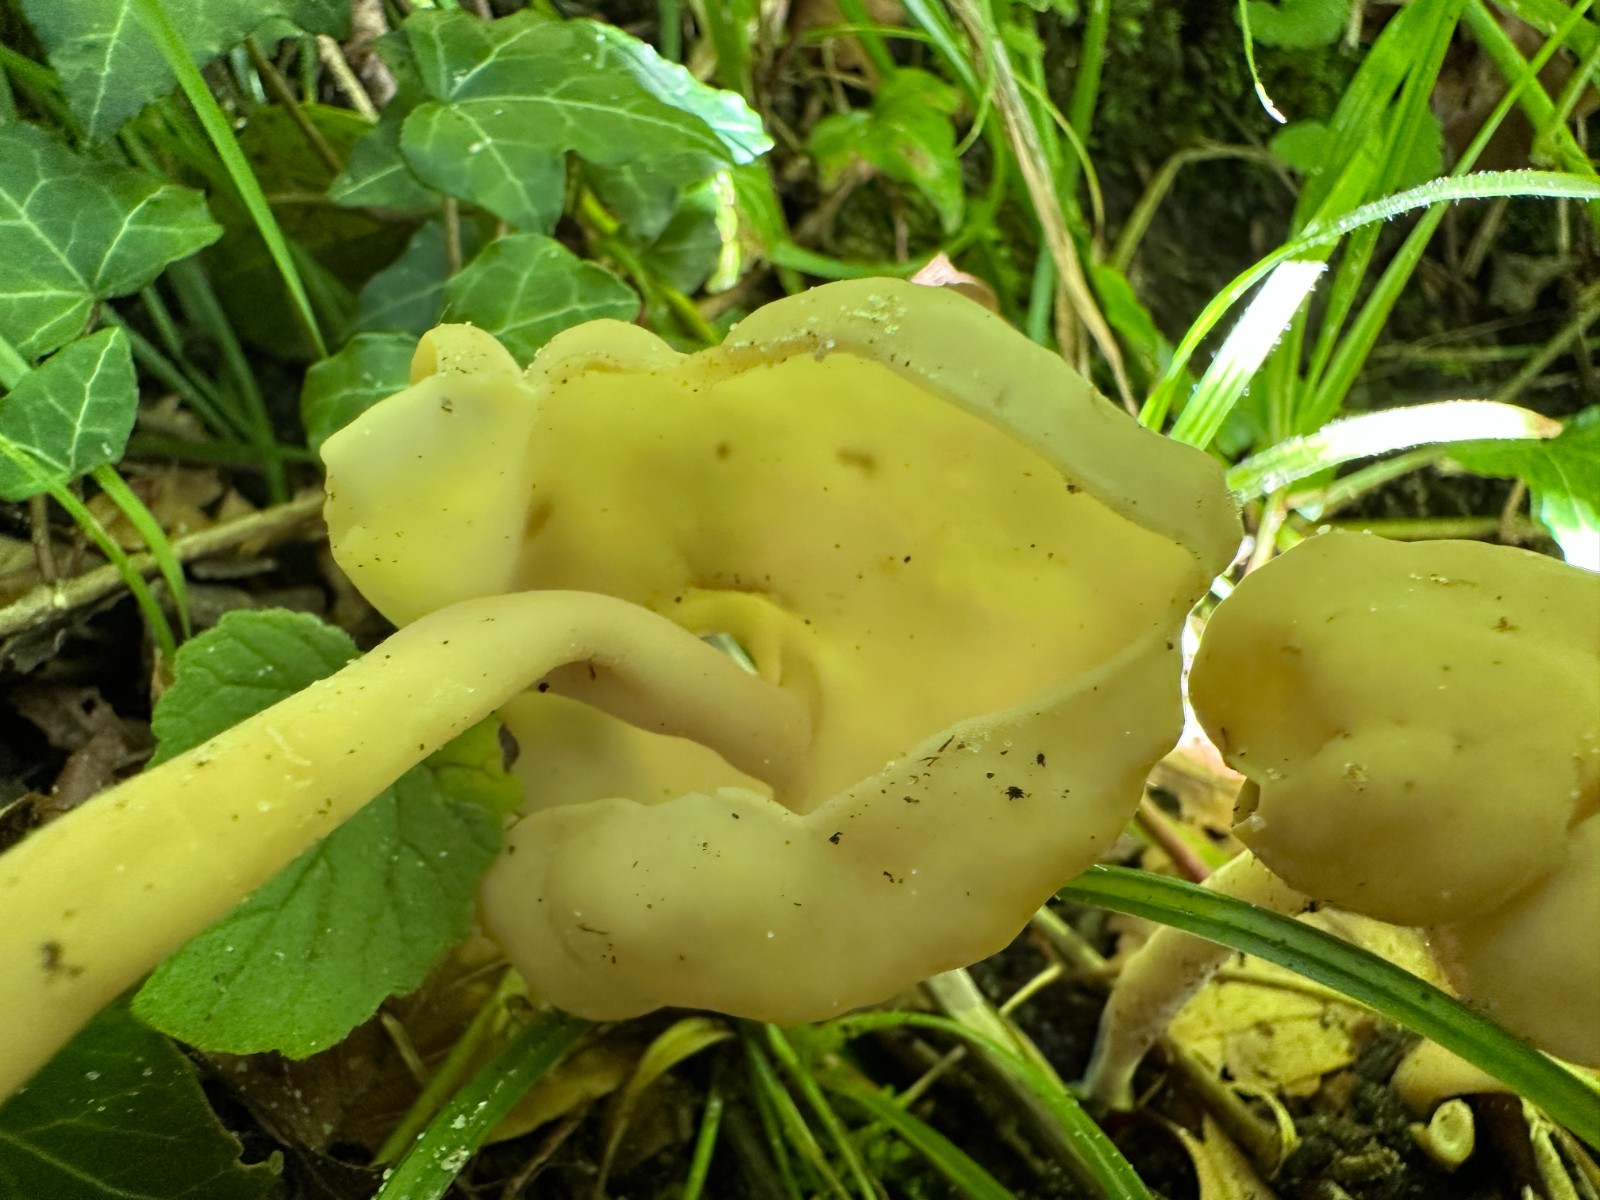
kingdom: Fungi
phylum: Ascomycota
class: Pezizomycetes
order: Pezizales
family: Helvellaceae
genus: Helvella
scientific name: Helvella
